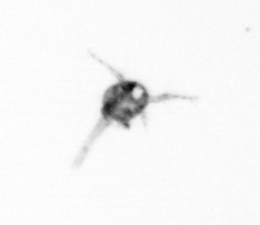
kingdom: Animalia
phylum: Arthropoda
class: Copepoda
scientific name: Copepoda
